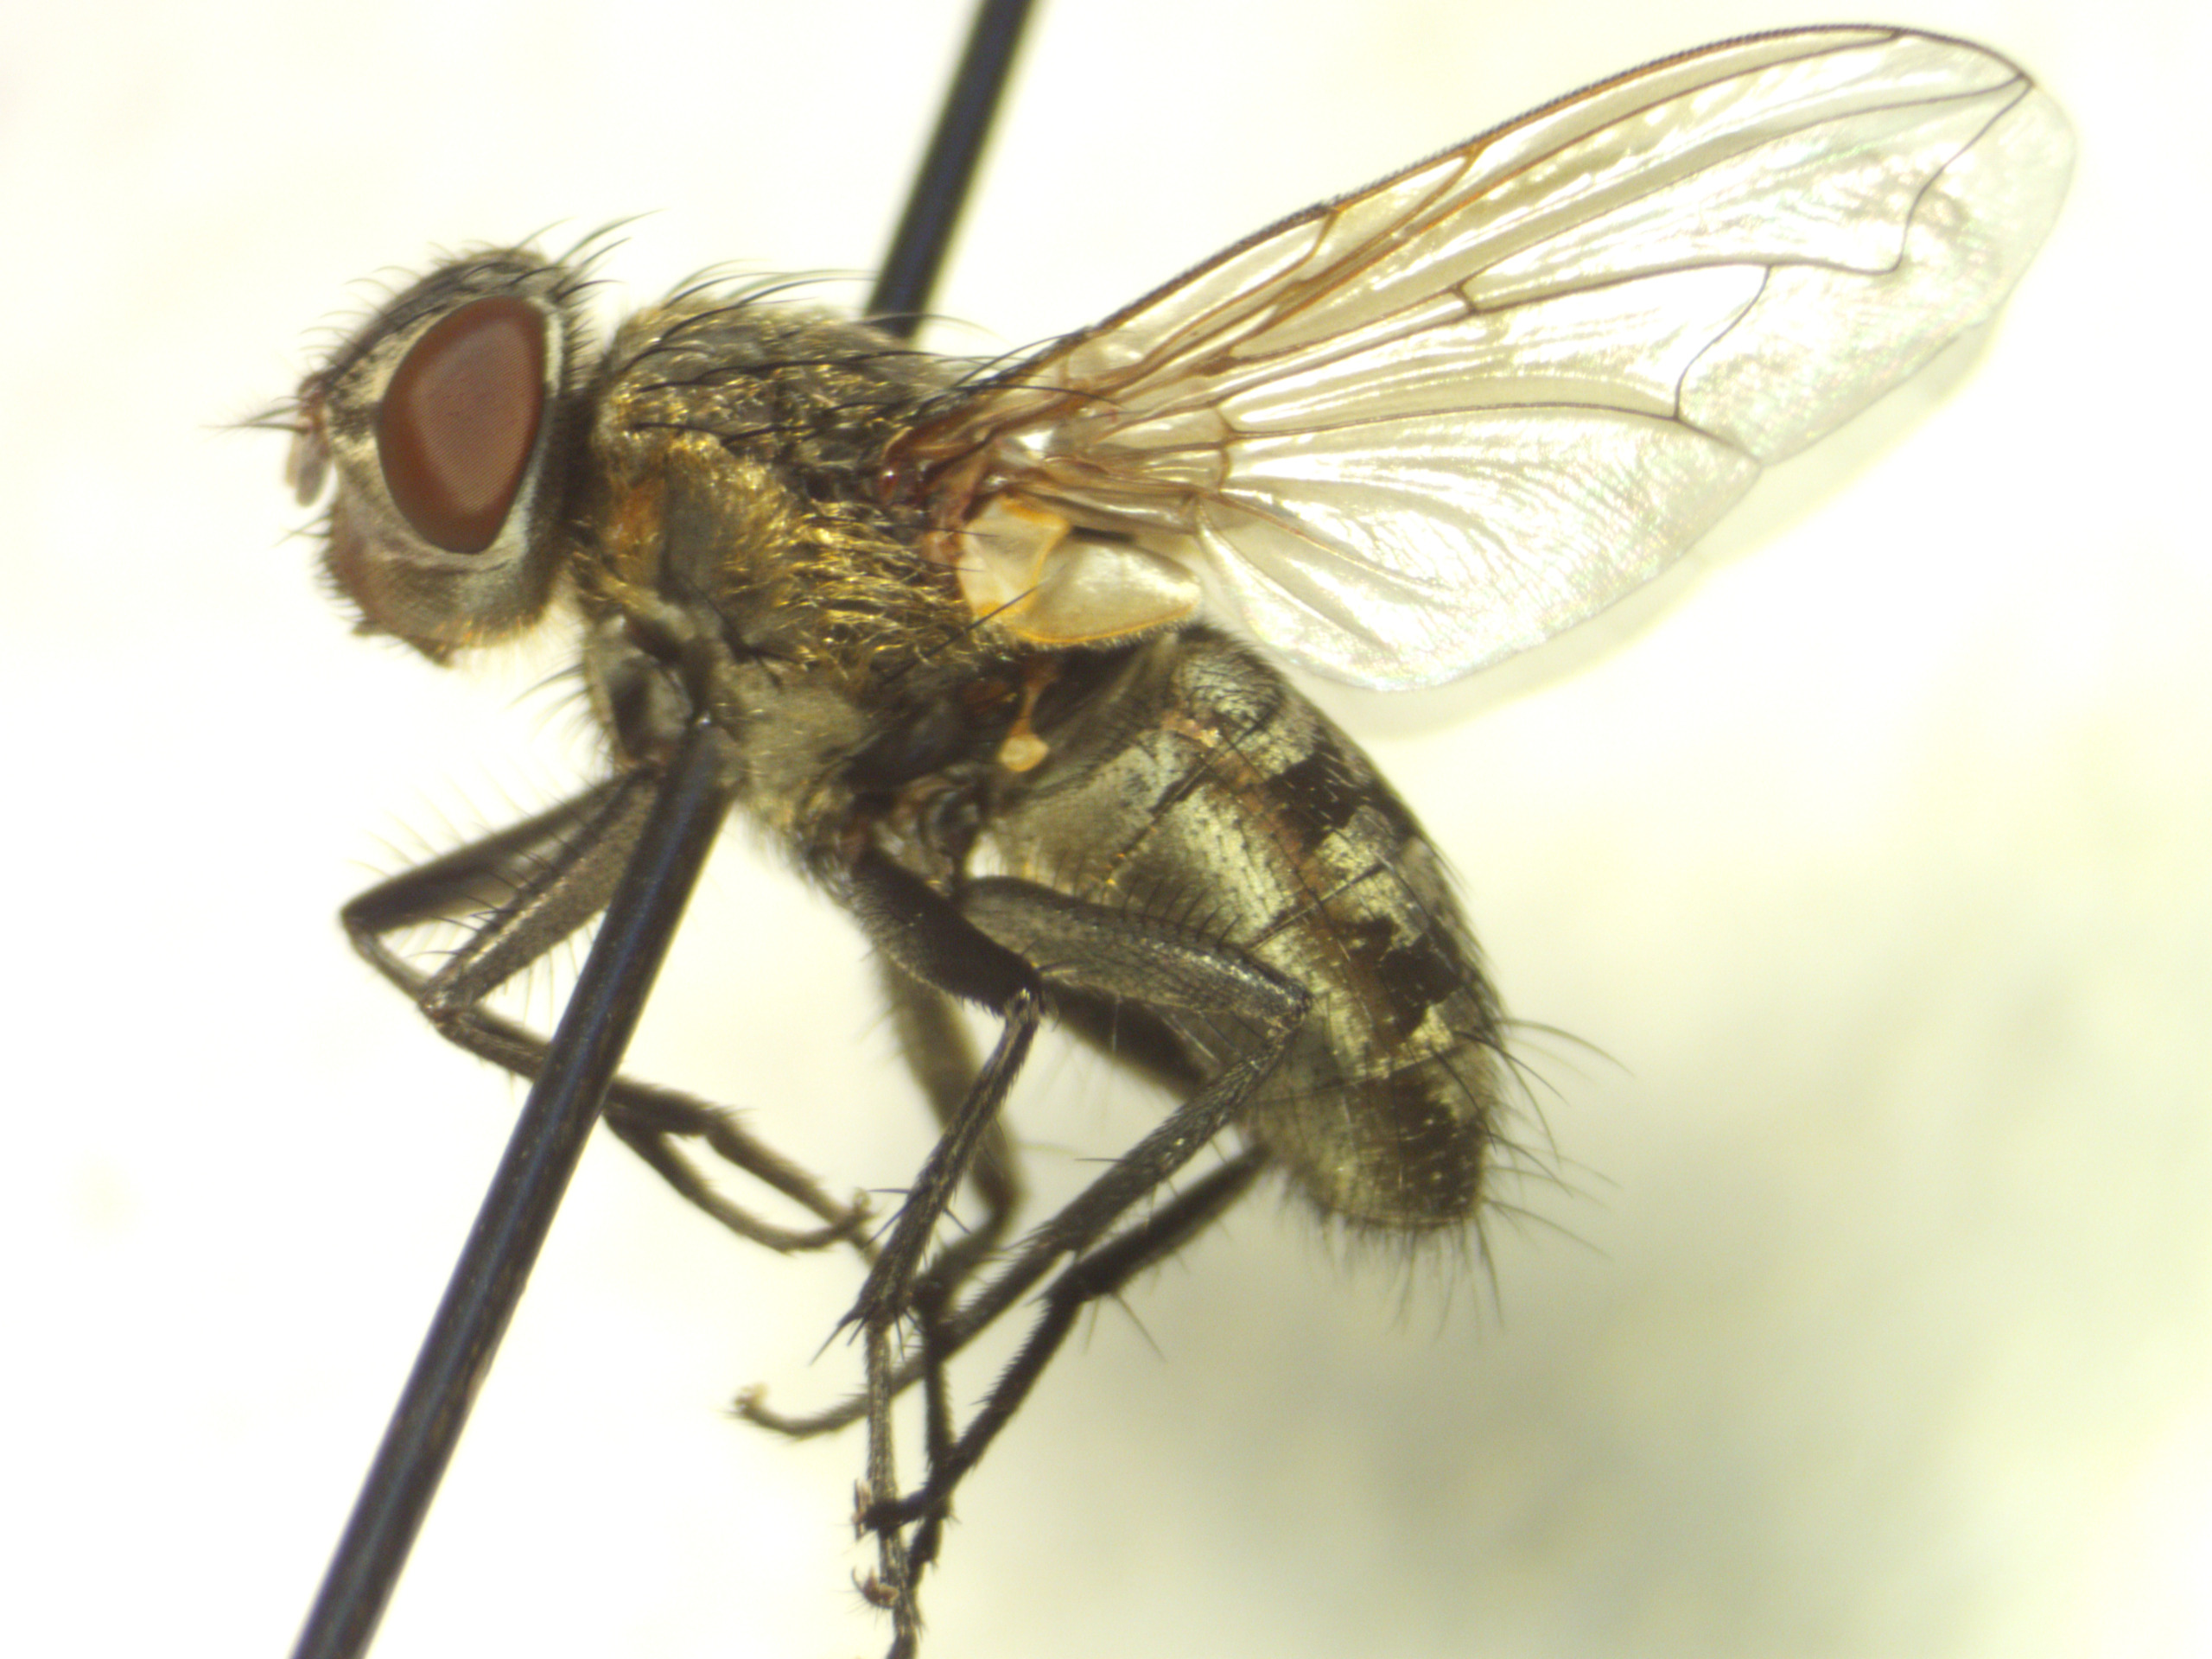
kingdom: Animalia
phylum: Arthropoda
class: Insecta
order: Diptera
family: Polleniidae
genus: Pollenia
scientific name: Pollenia angustigena
